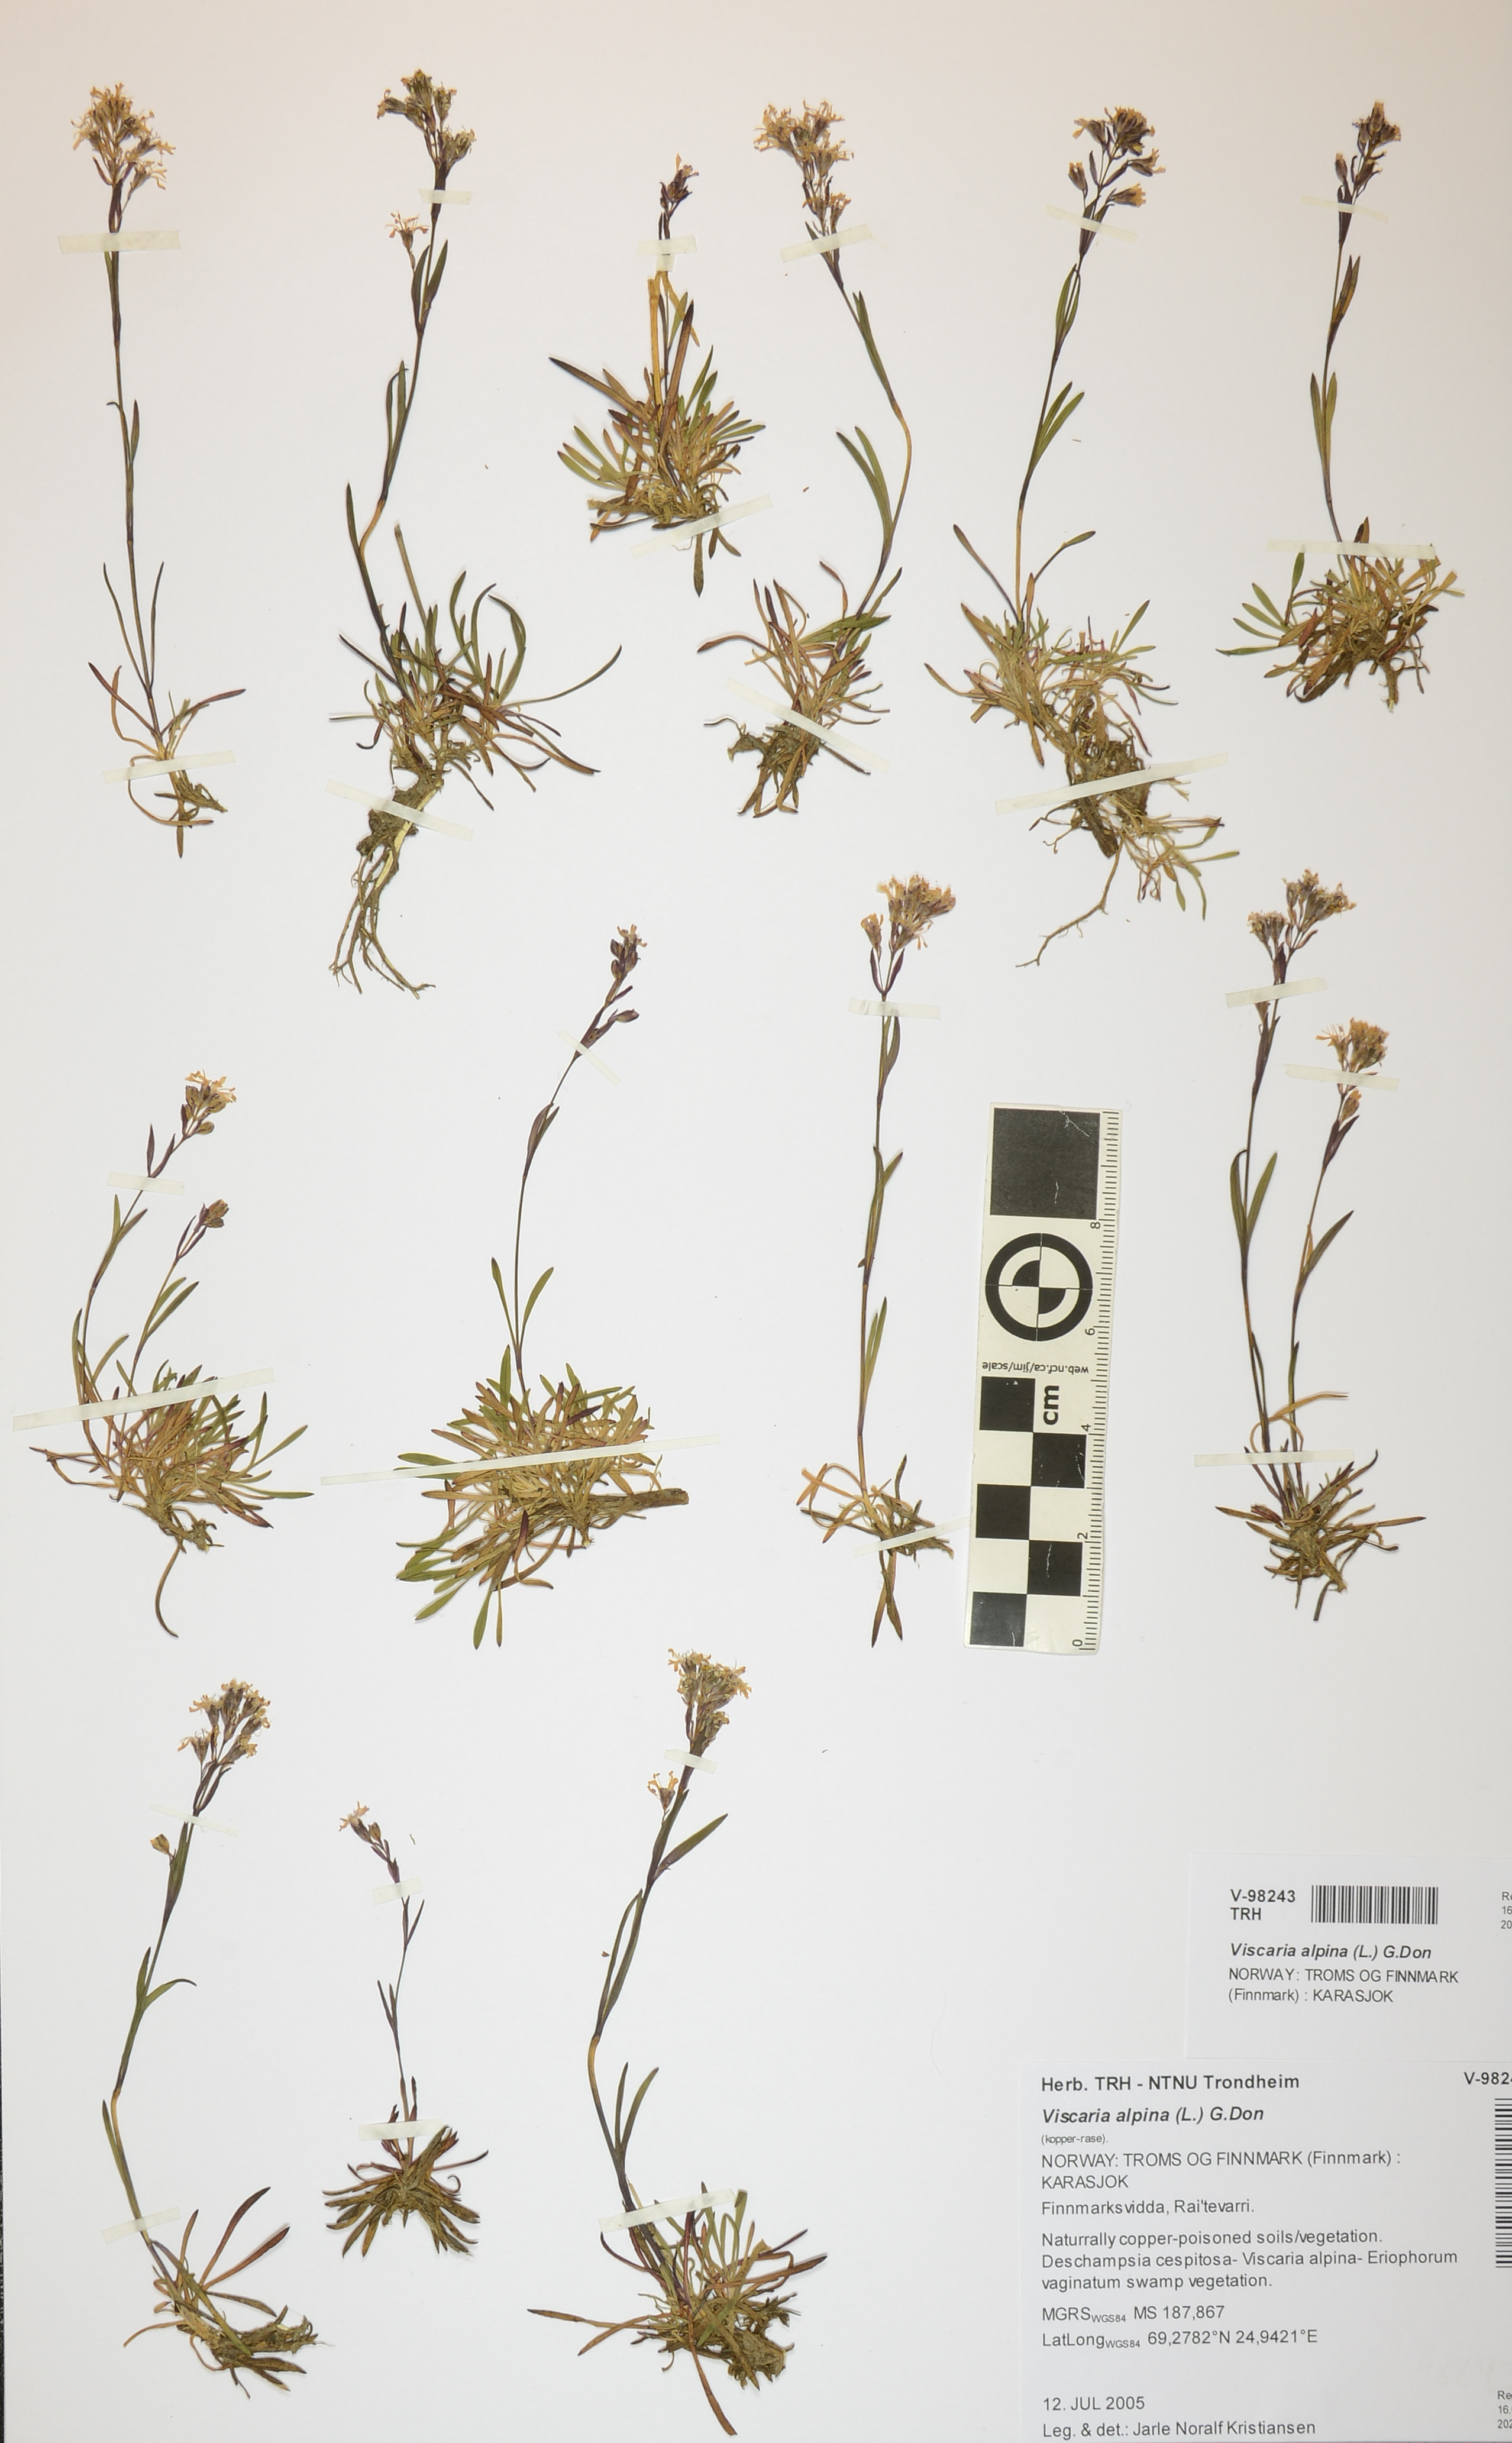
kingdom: Plantae
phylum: Tracheophyta
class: Magnoliopsida
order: Caryophyllales
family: Caryophyllaceae
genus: Viscaria
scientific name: Viscaria alpina
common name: Alpine campion
